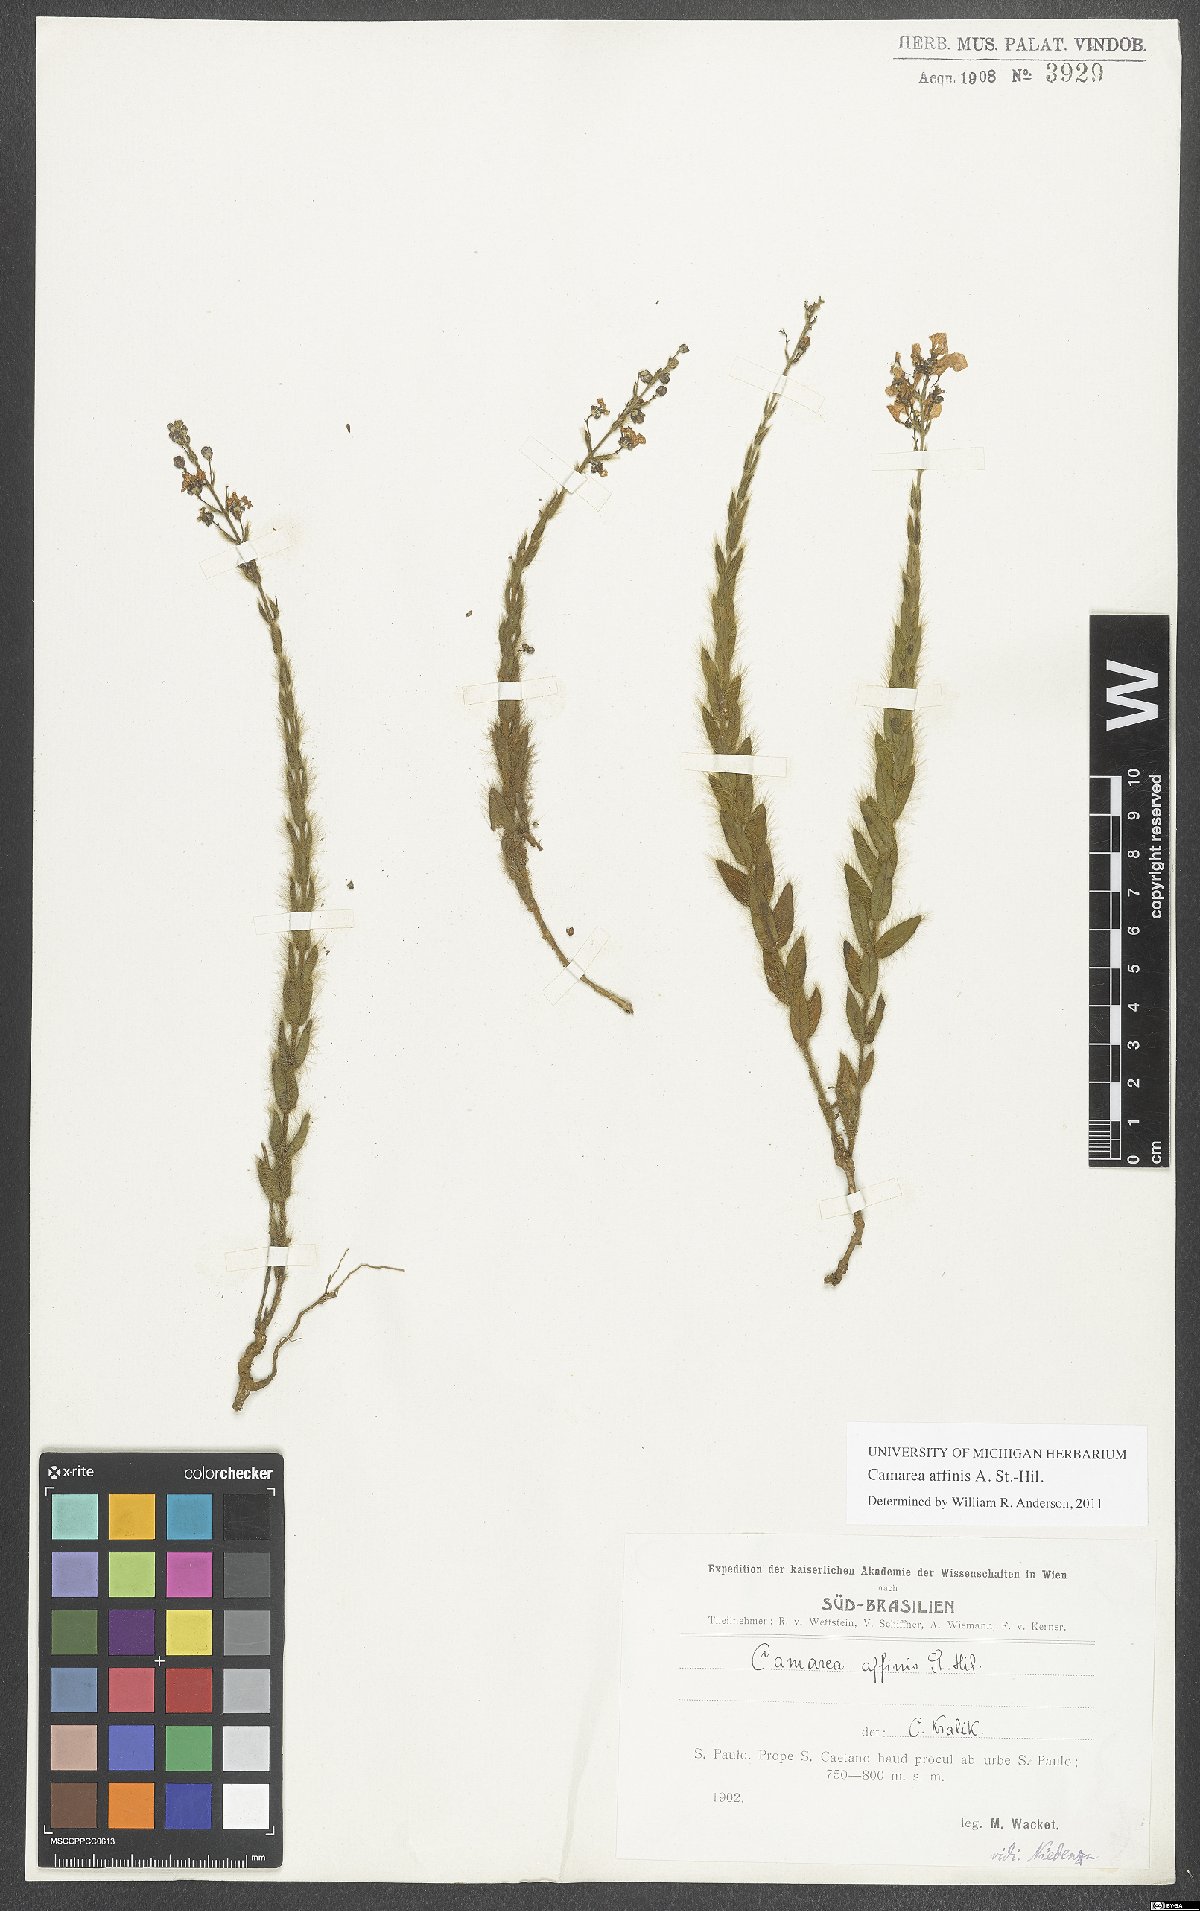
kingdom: Plantae
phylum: Tracheophyta
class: Magnoliopsida
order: Malpighiales
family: Malpighiaceae
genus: Camarea
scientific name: Camarea affinis
